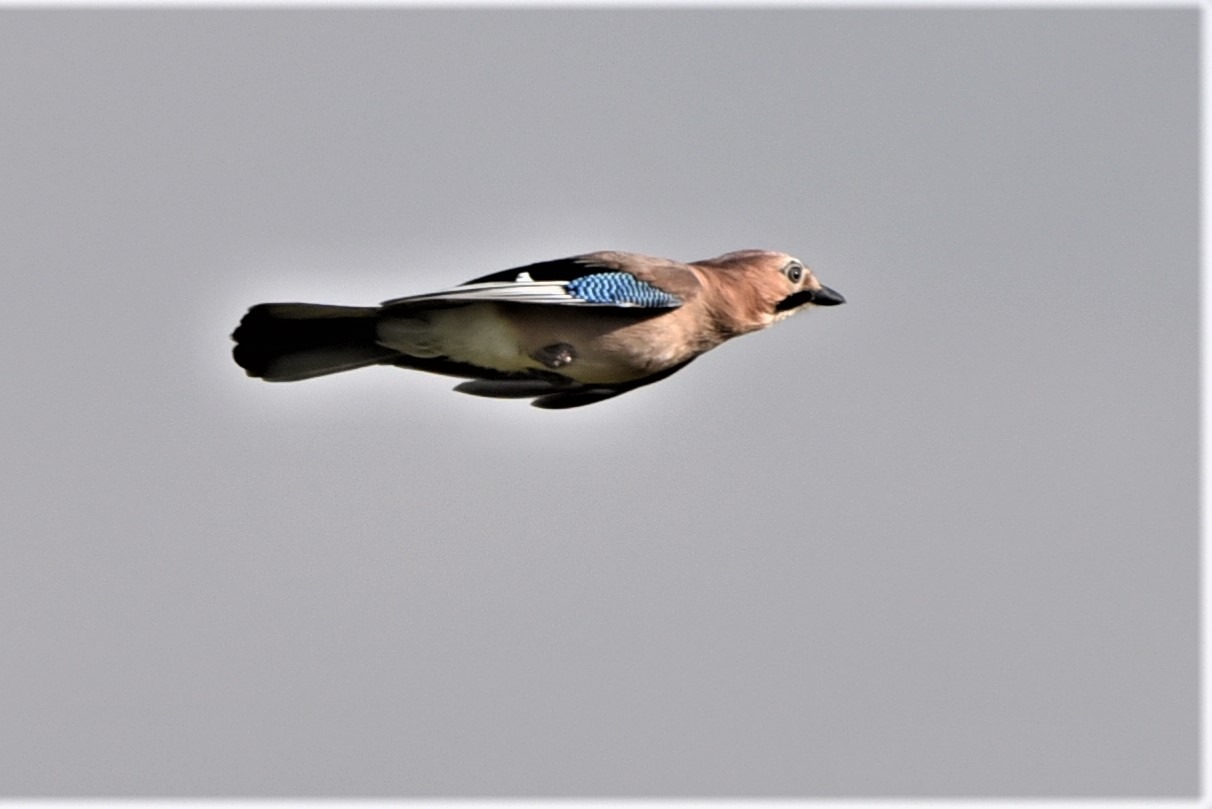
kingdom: Animalia
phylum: Chordata
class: Aves
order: Passeriformes
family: Corvidae
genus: Garrulus
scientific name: Garrulus glandarius
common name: Skovskade
